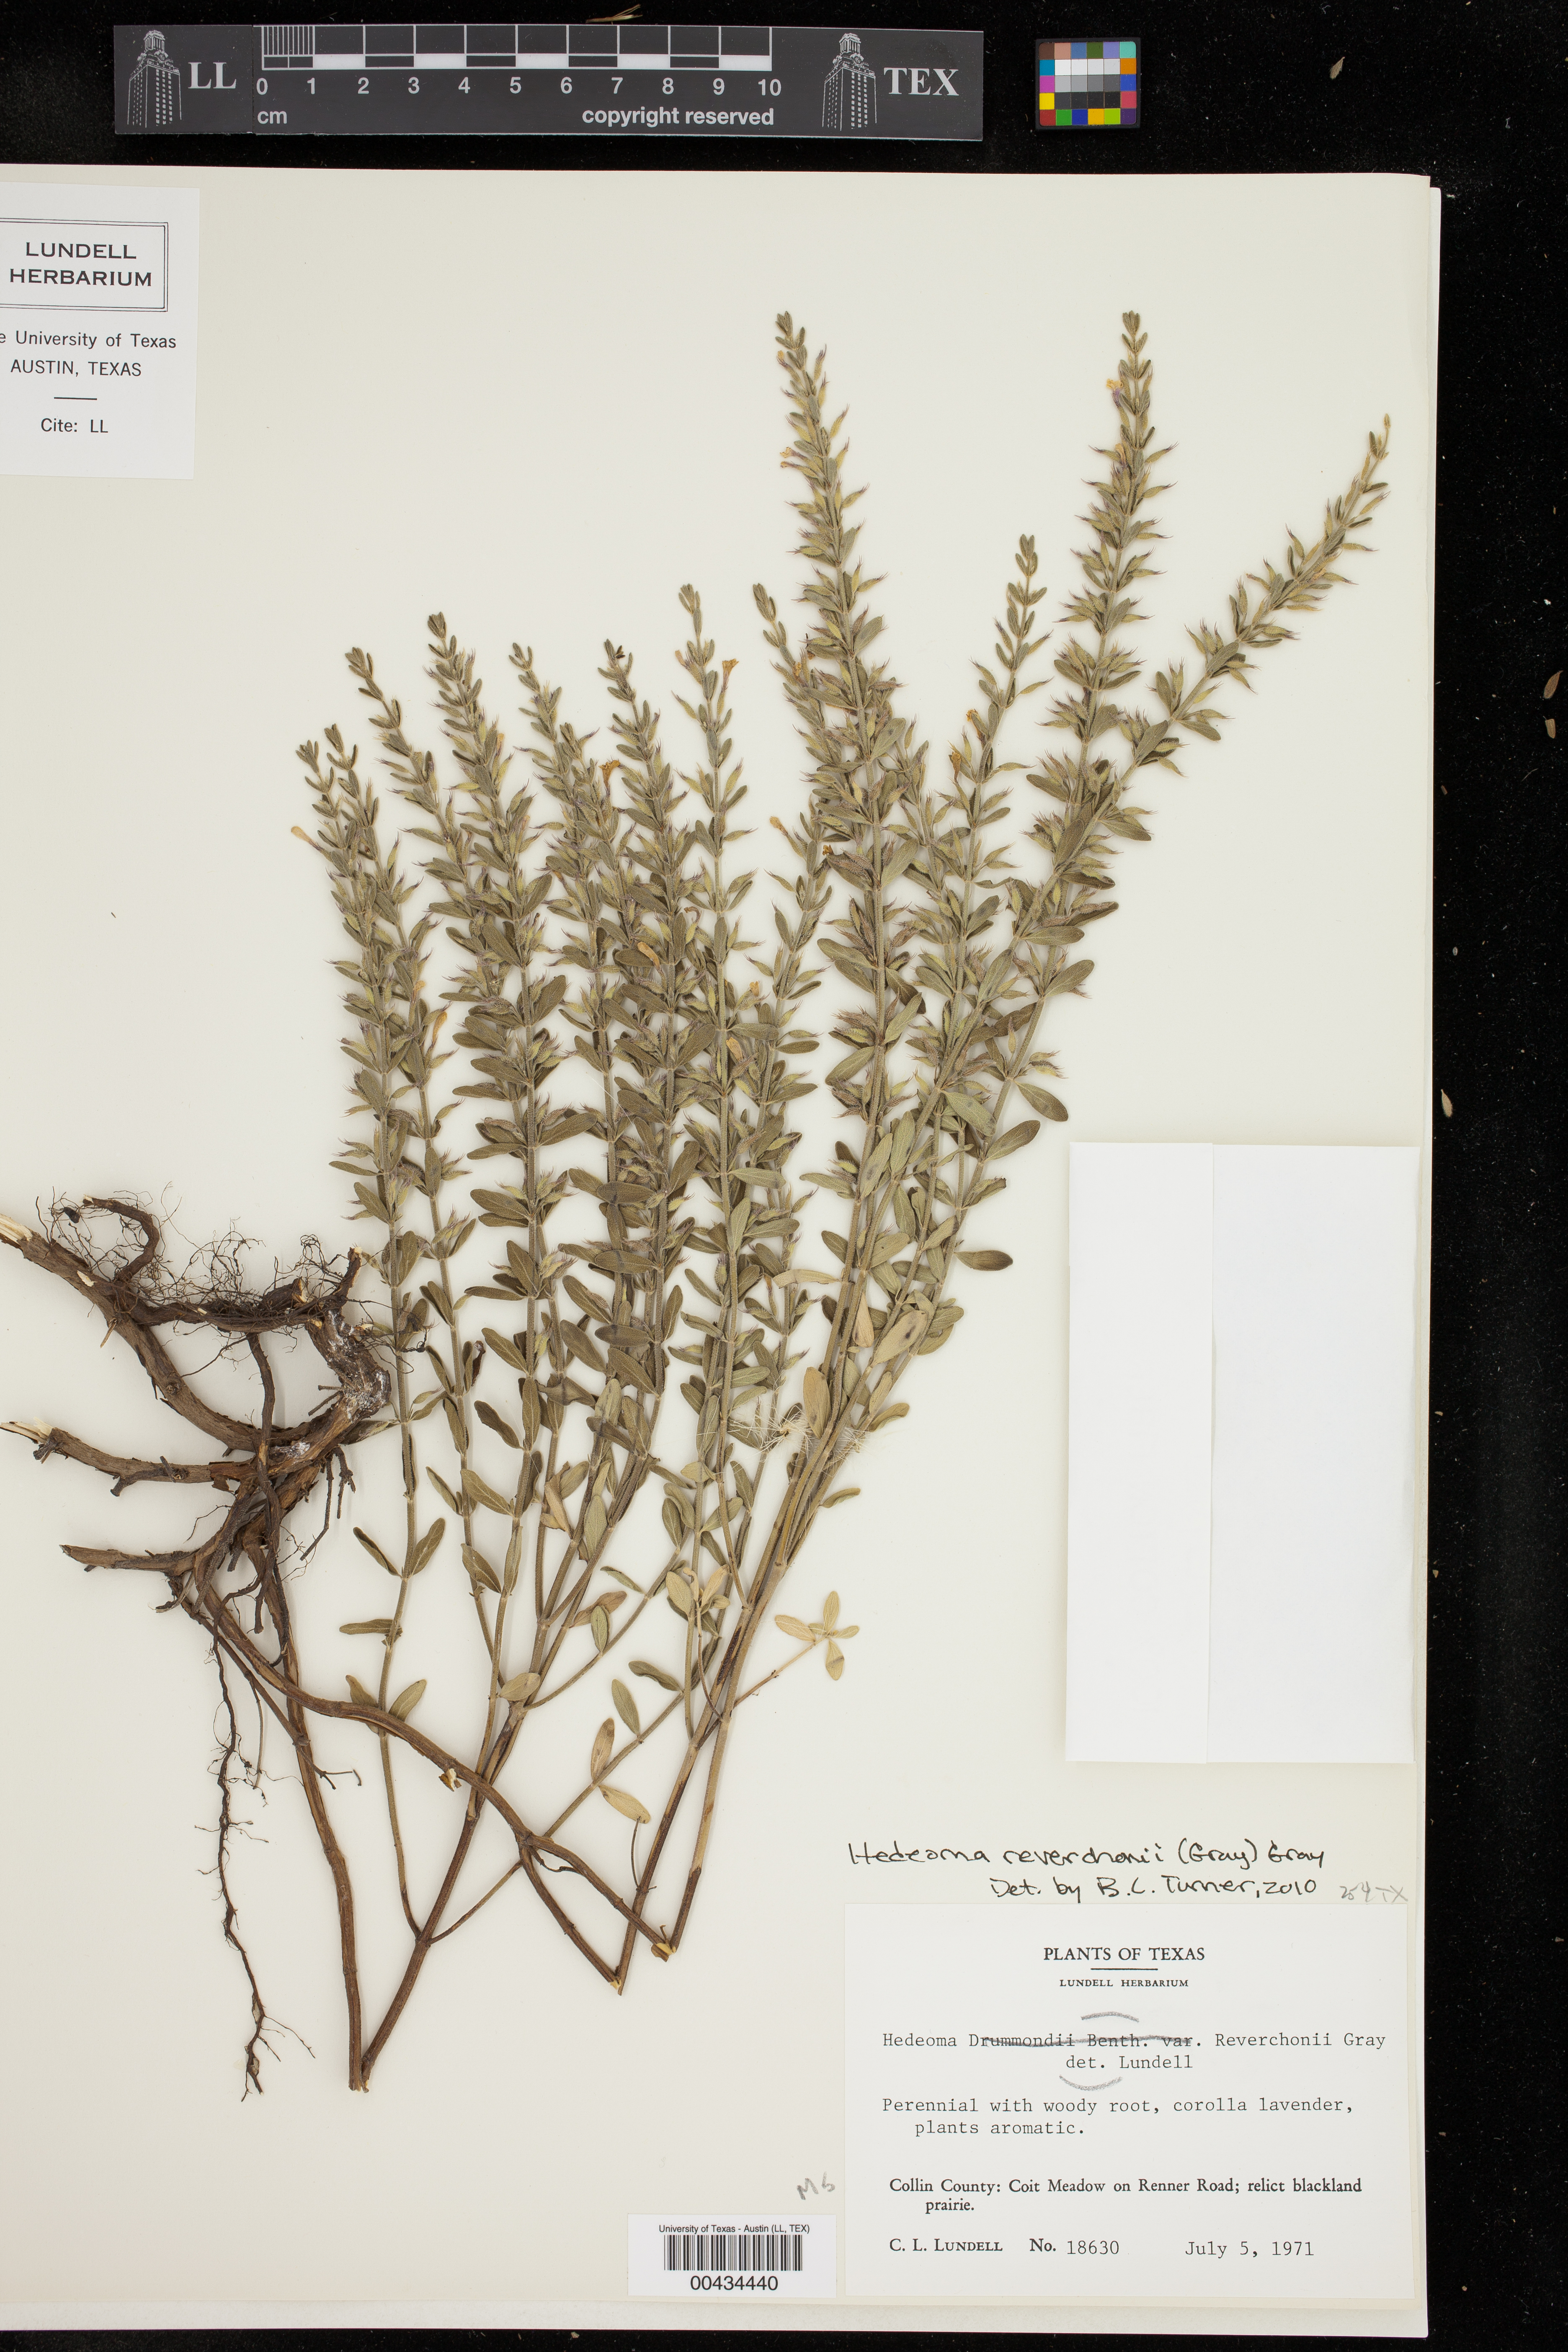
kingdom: Plantae
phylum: Tracheophyta
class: Magnoliopsida
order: Lamiales
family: Lamiaceae
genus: Hedeoma
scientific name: Hedeoma reverchonii
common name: Reverchon's false penny-royal
